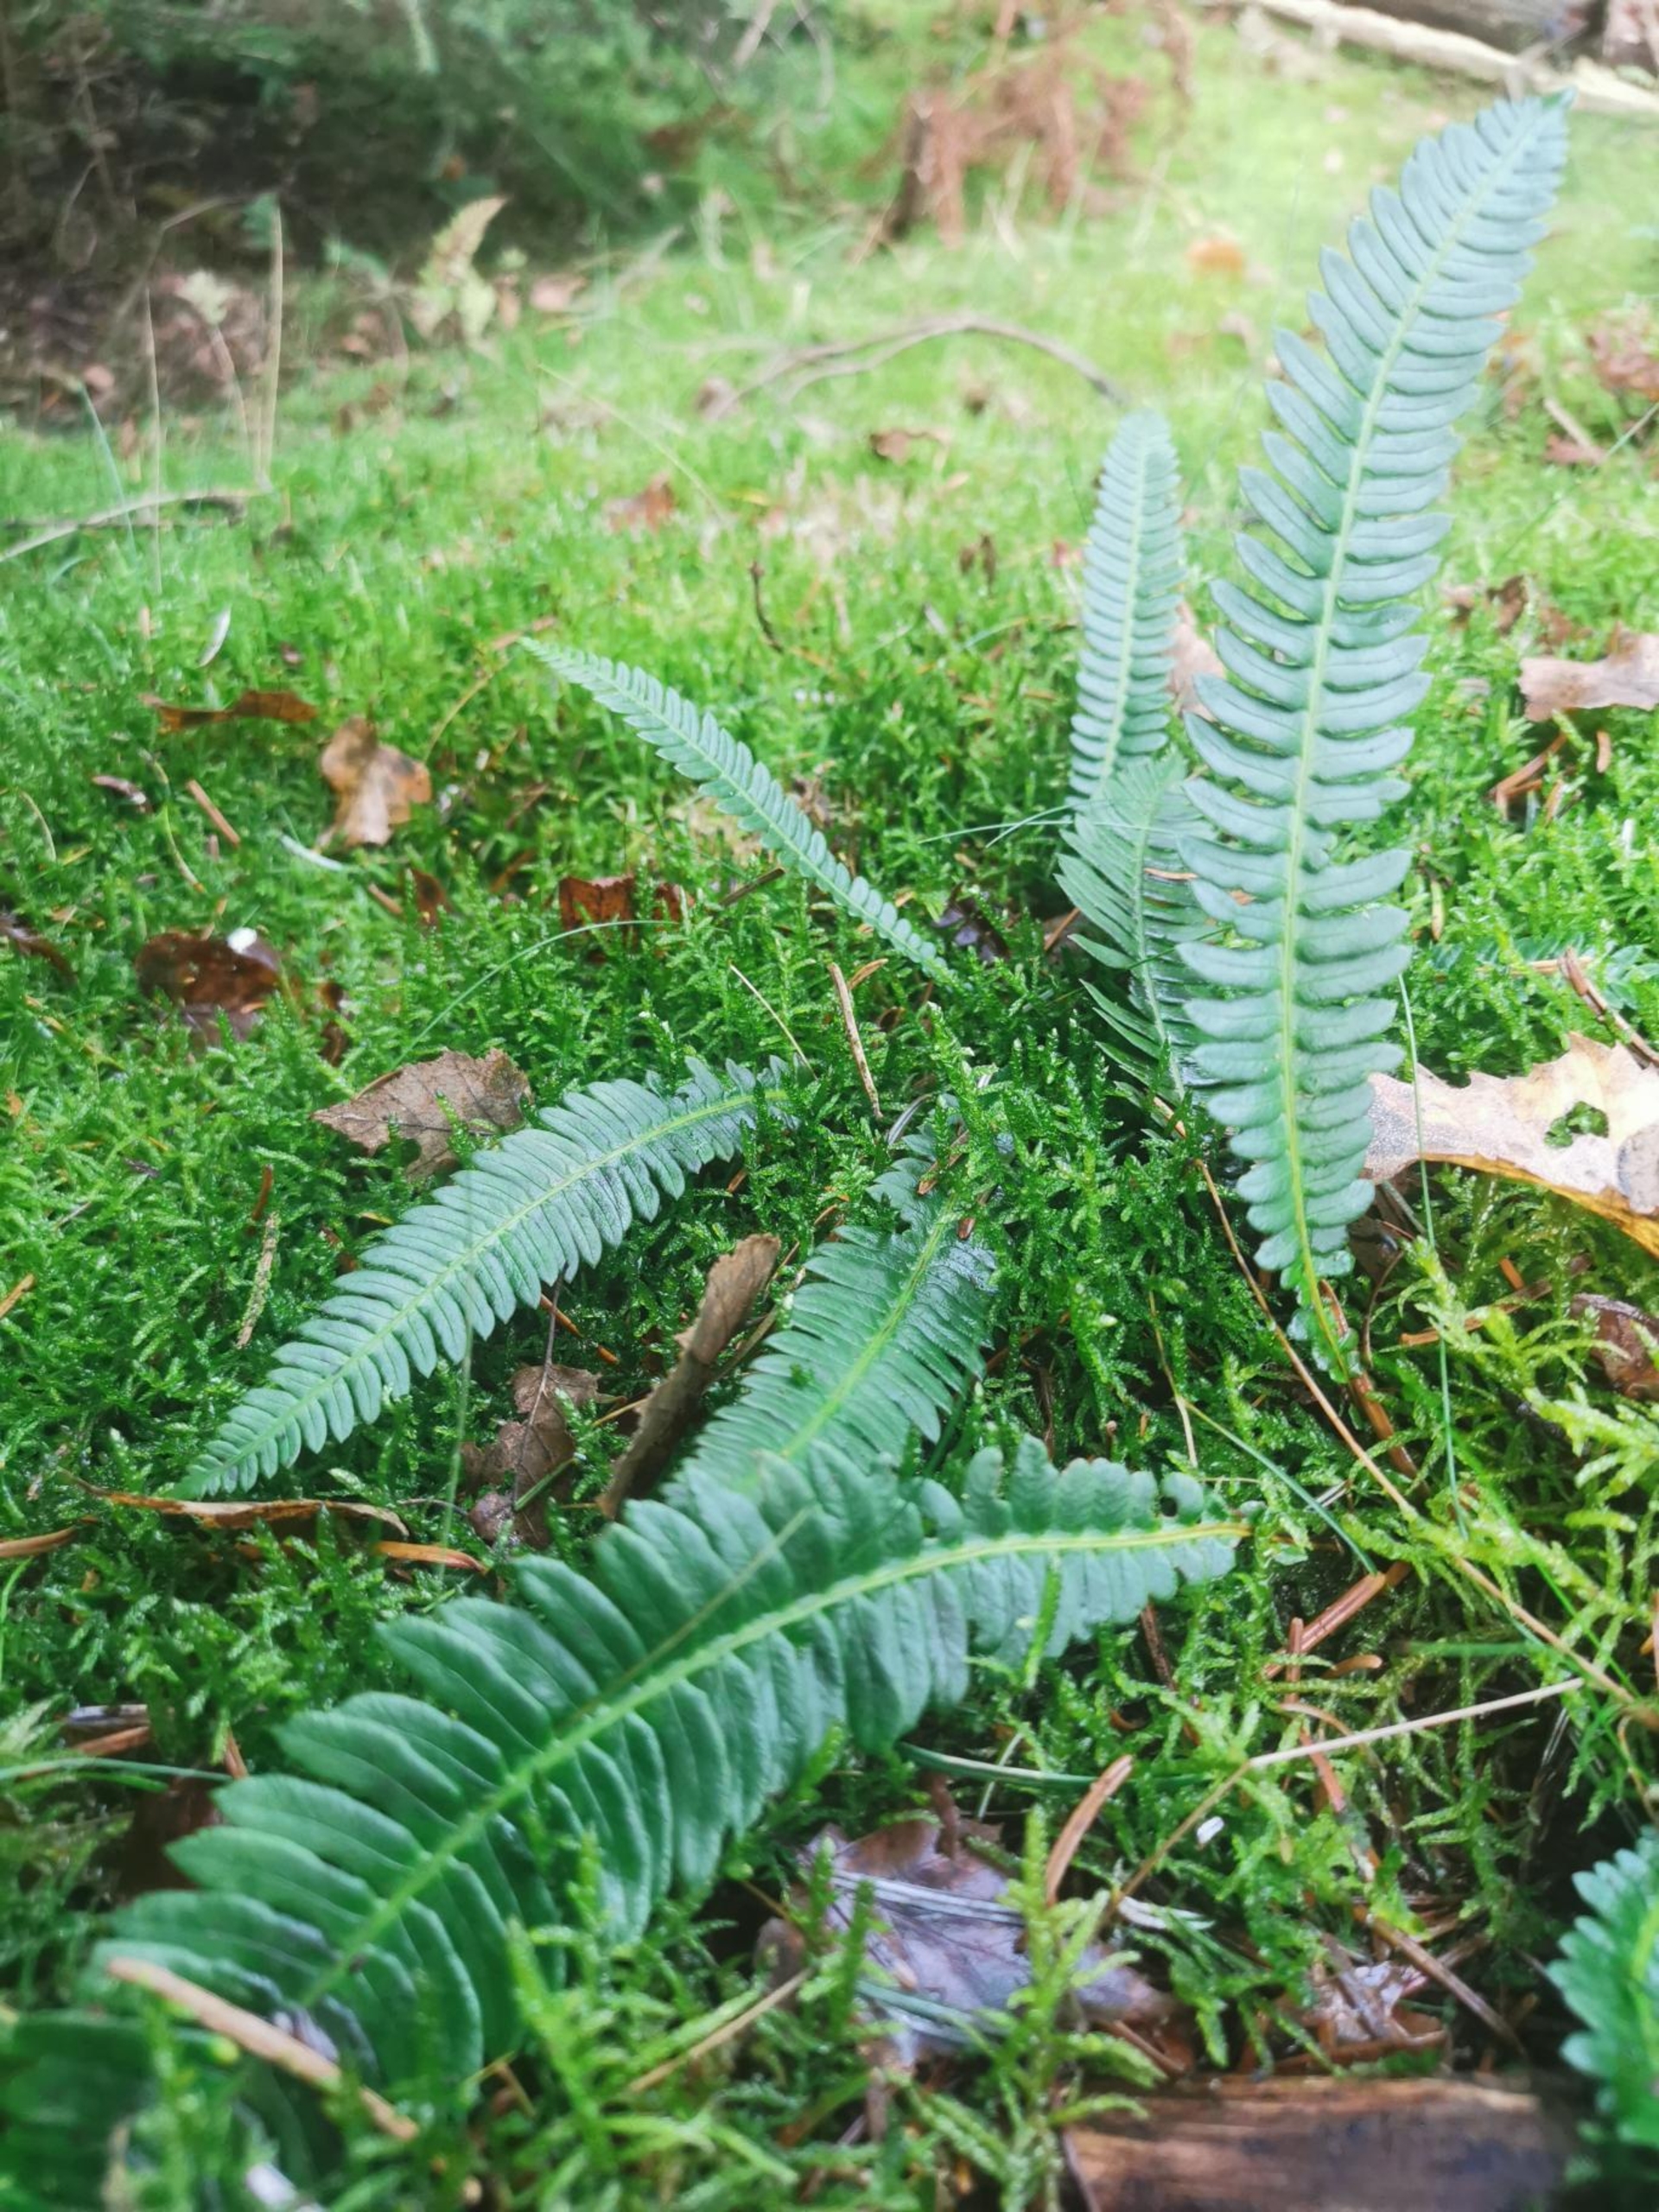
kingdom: Plantae
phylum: Tracheophyta
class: Polypodiopsida
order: Polypodiales
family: Blechnaceae
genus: Struthiopteris
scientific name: Struthiopteris spicant
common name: Kambregne
